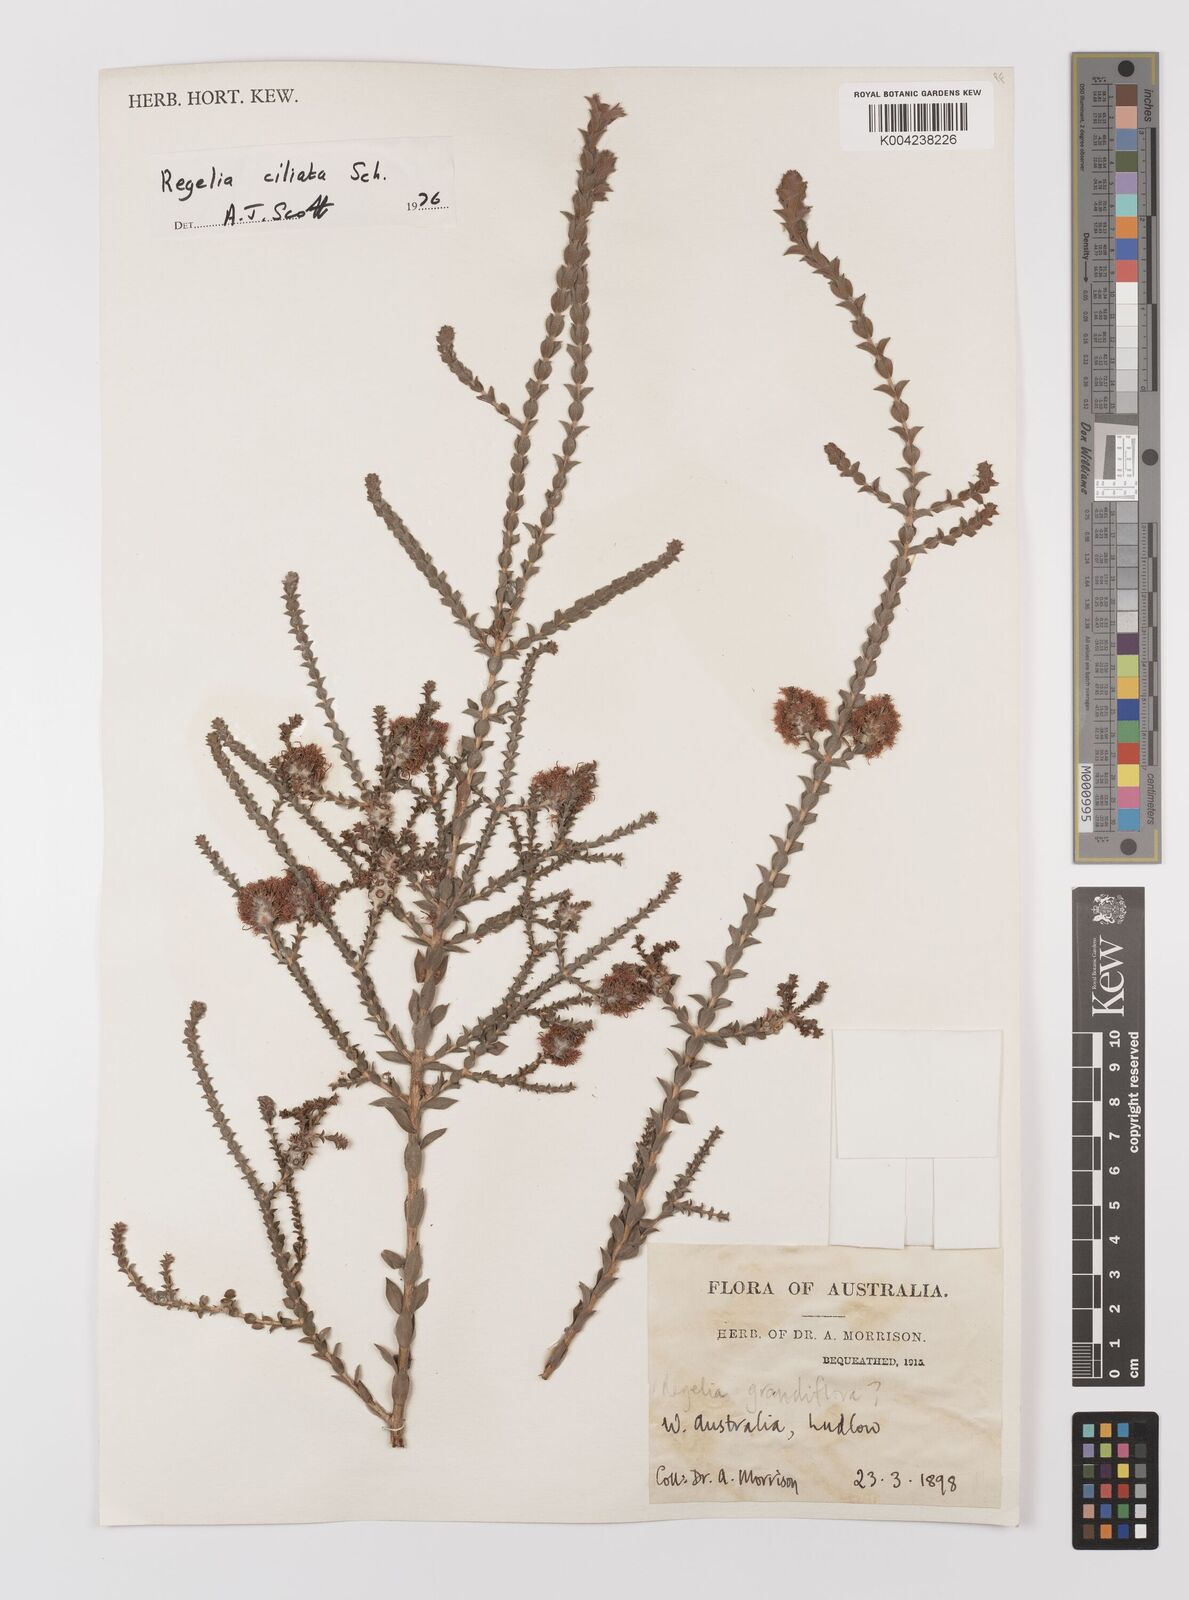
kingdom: Plantae
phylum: Tracheophyta
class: Magnoliopsida
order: Myrtales
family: Myrtaceae
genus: Melaleuca
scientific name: Melaleuca crossota
